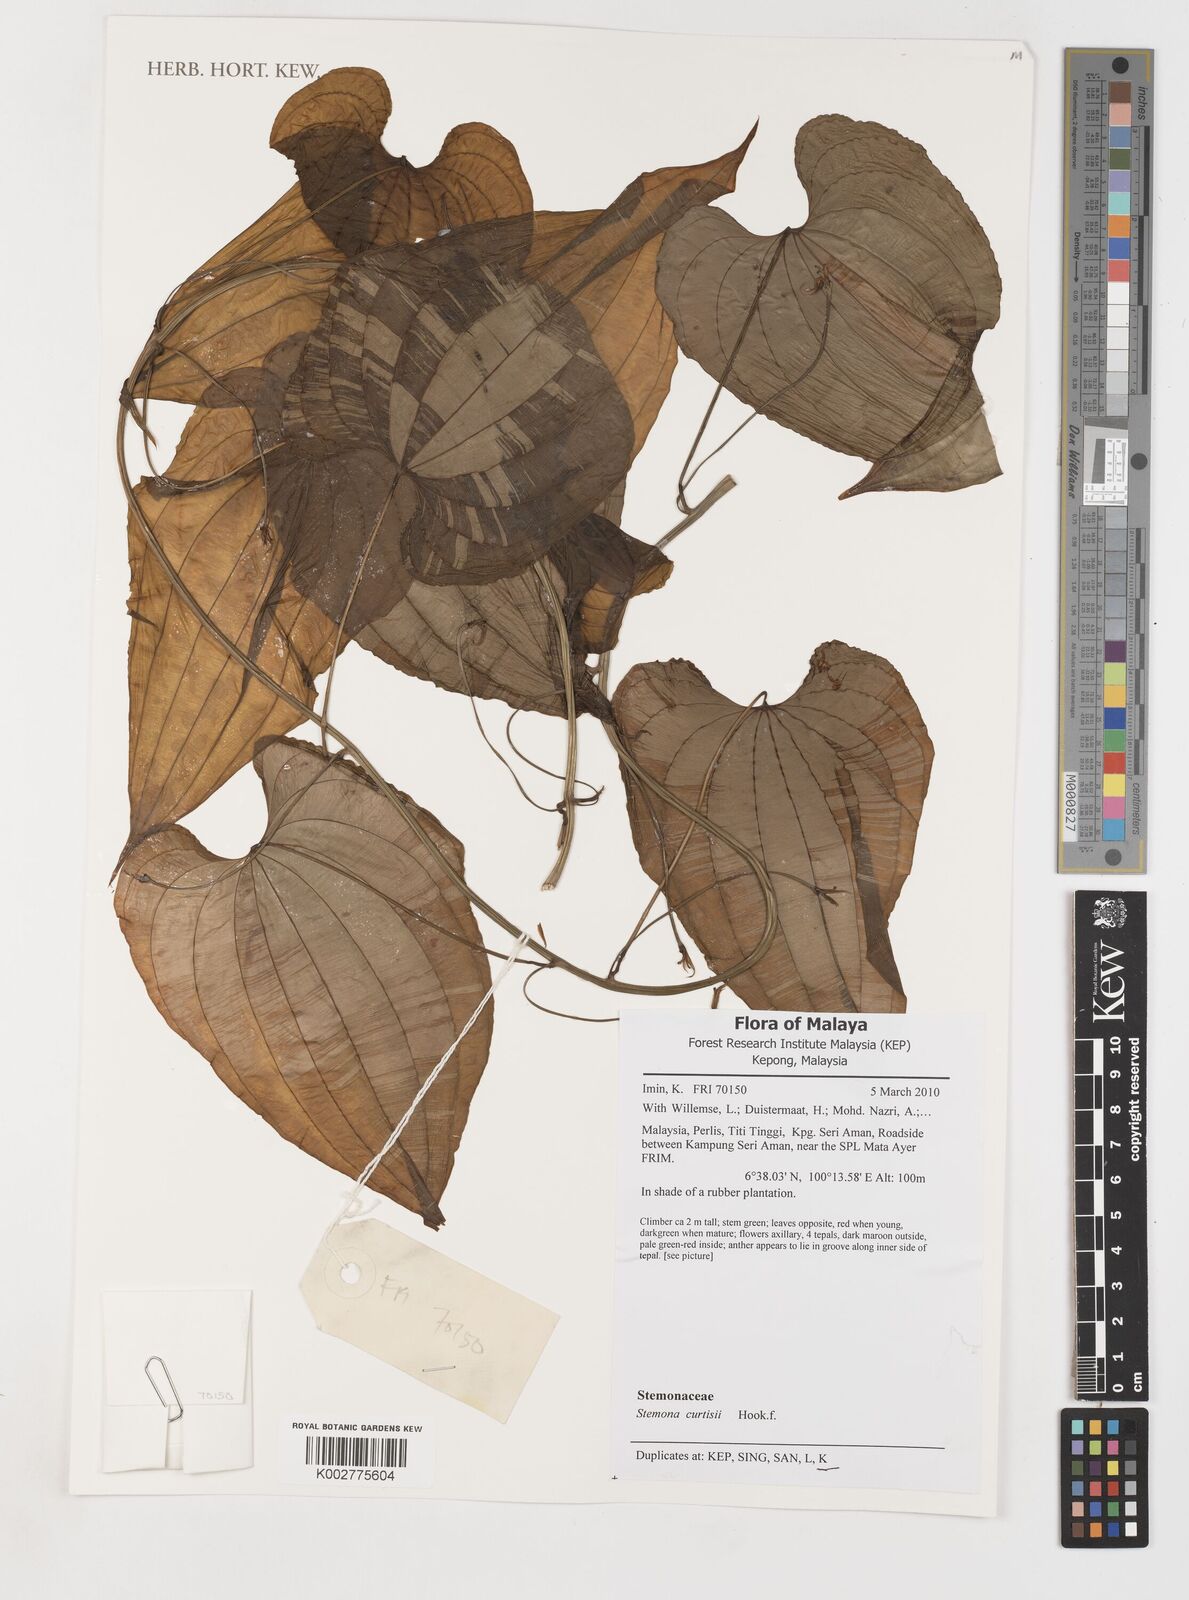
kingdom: Plantae
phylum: Tracheophyta
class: Liliopsida
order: Pandanales
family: Stemonaceae
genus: Stemona
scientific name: Stemona tuberosa
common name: Stemona
